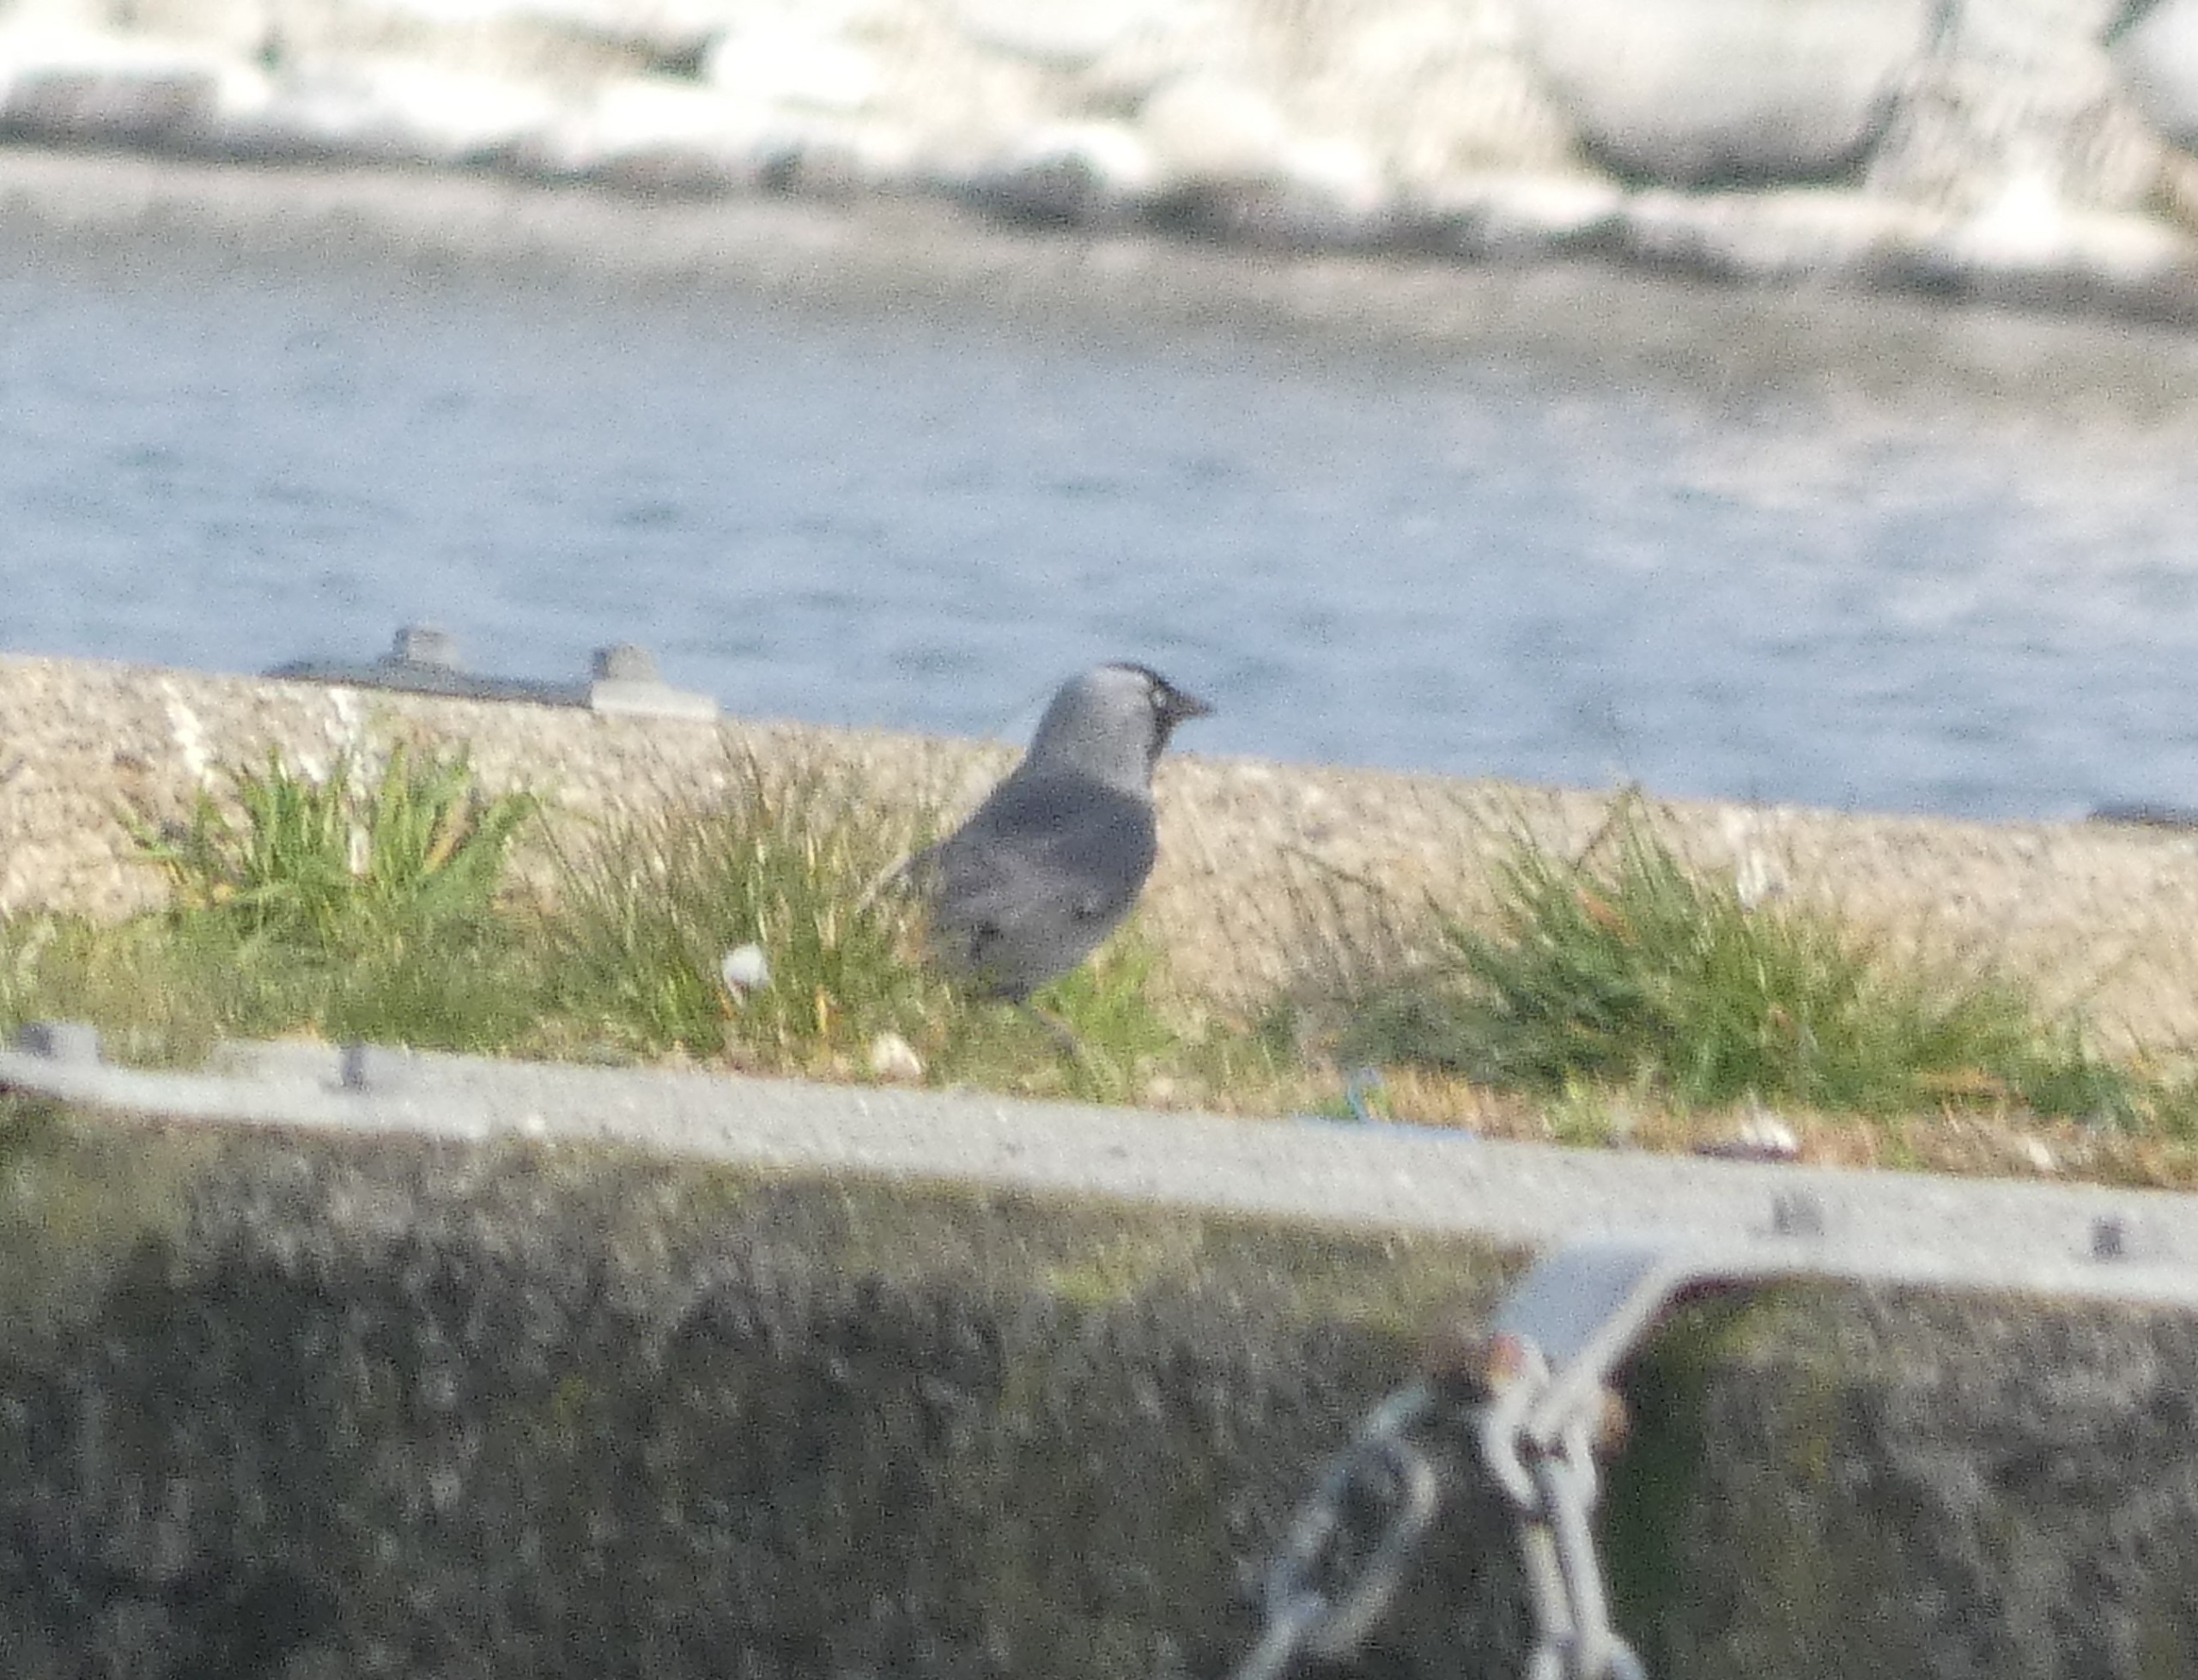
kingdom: Animalia
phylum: Chordata
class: Aves
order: Passeriformes
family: Corvidae
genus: Coloeus
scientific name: Coloeus monedula
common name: Allike
